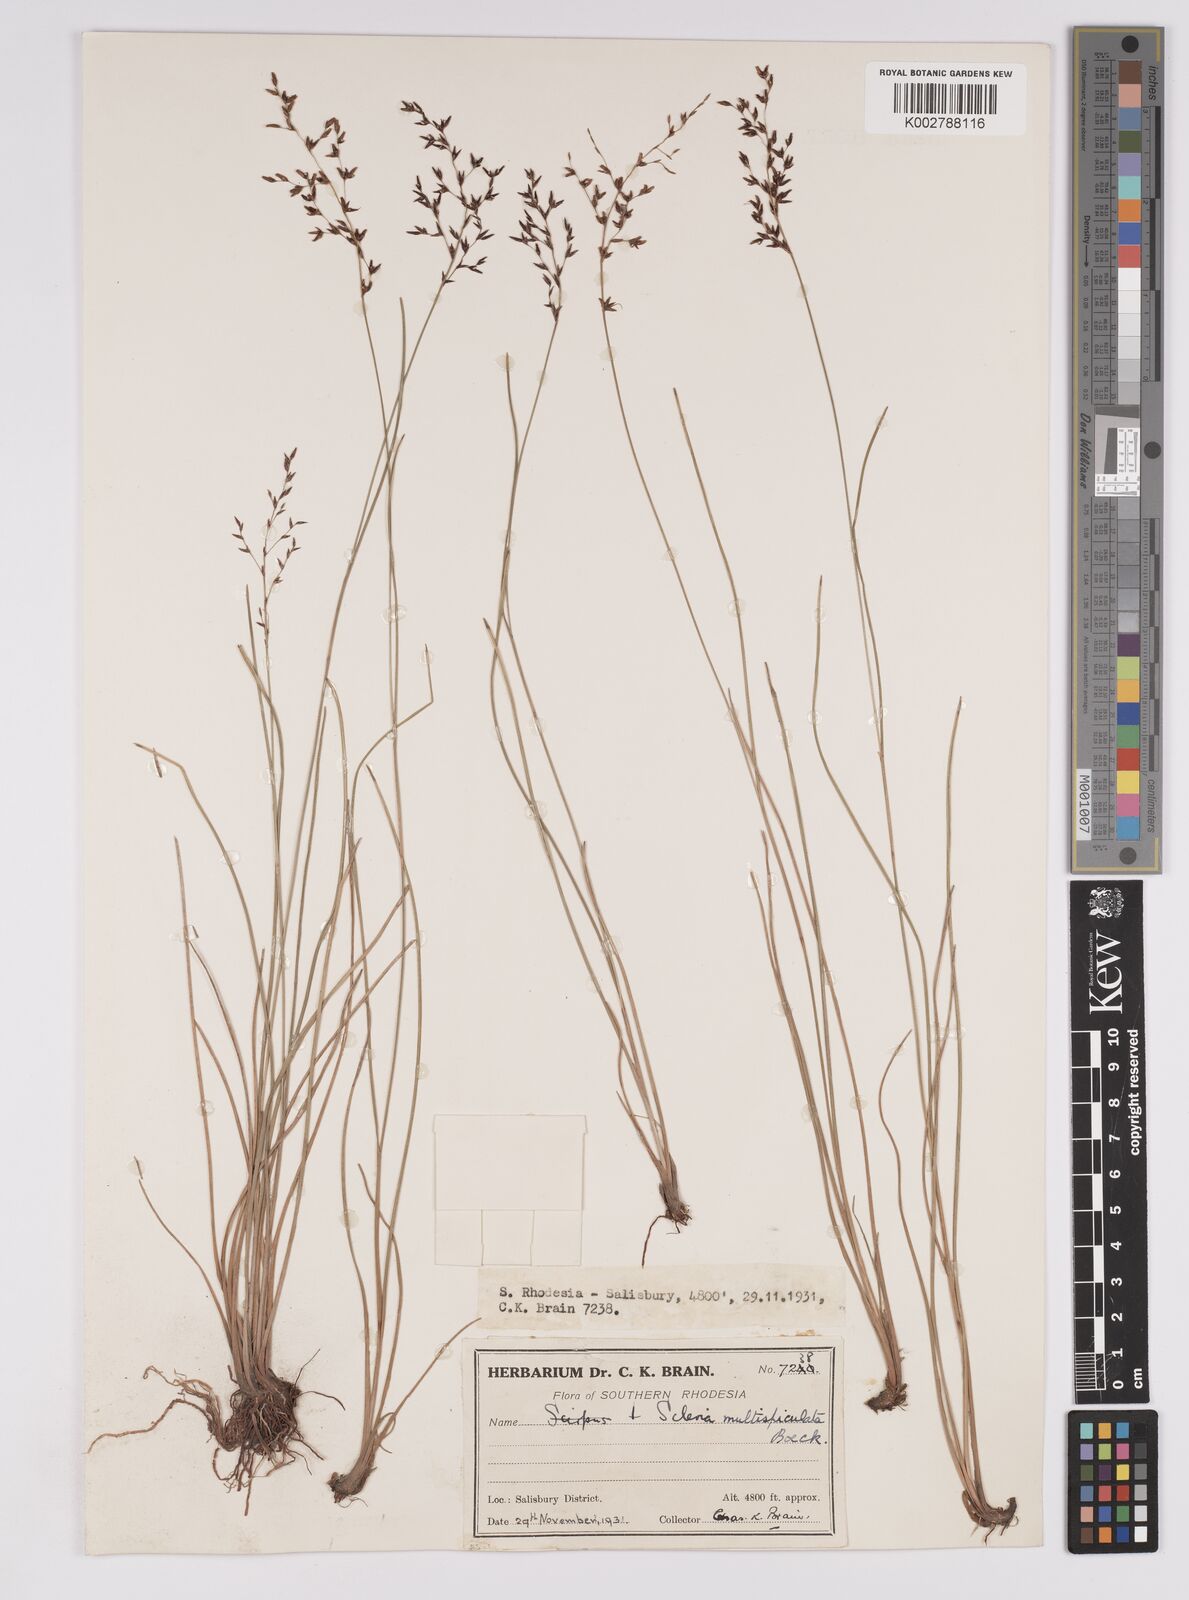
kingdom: Plantae
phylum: Tracheophyta
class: Liliopsida
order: Poales
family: Cyperaceae
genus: Scleria
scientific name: Scleria pooides
